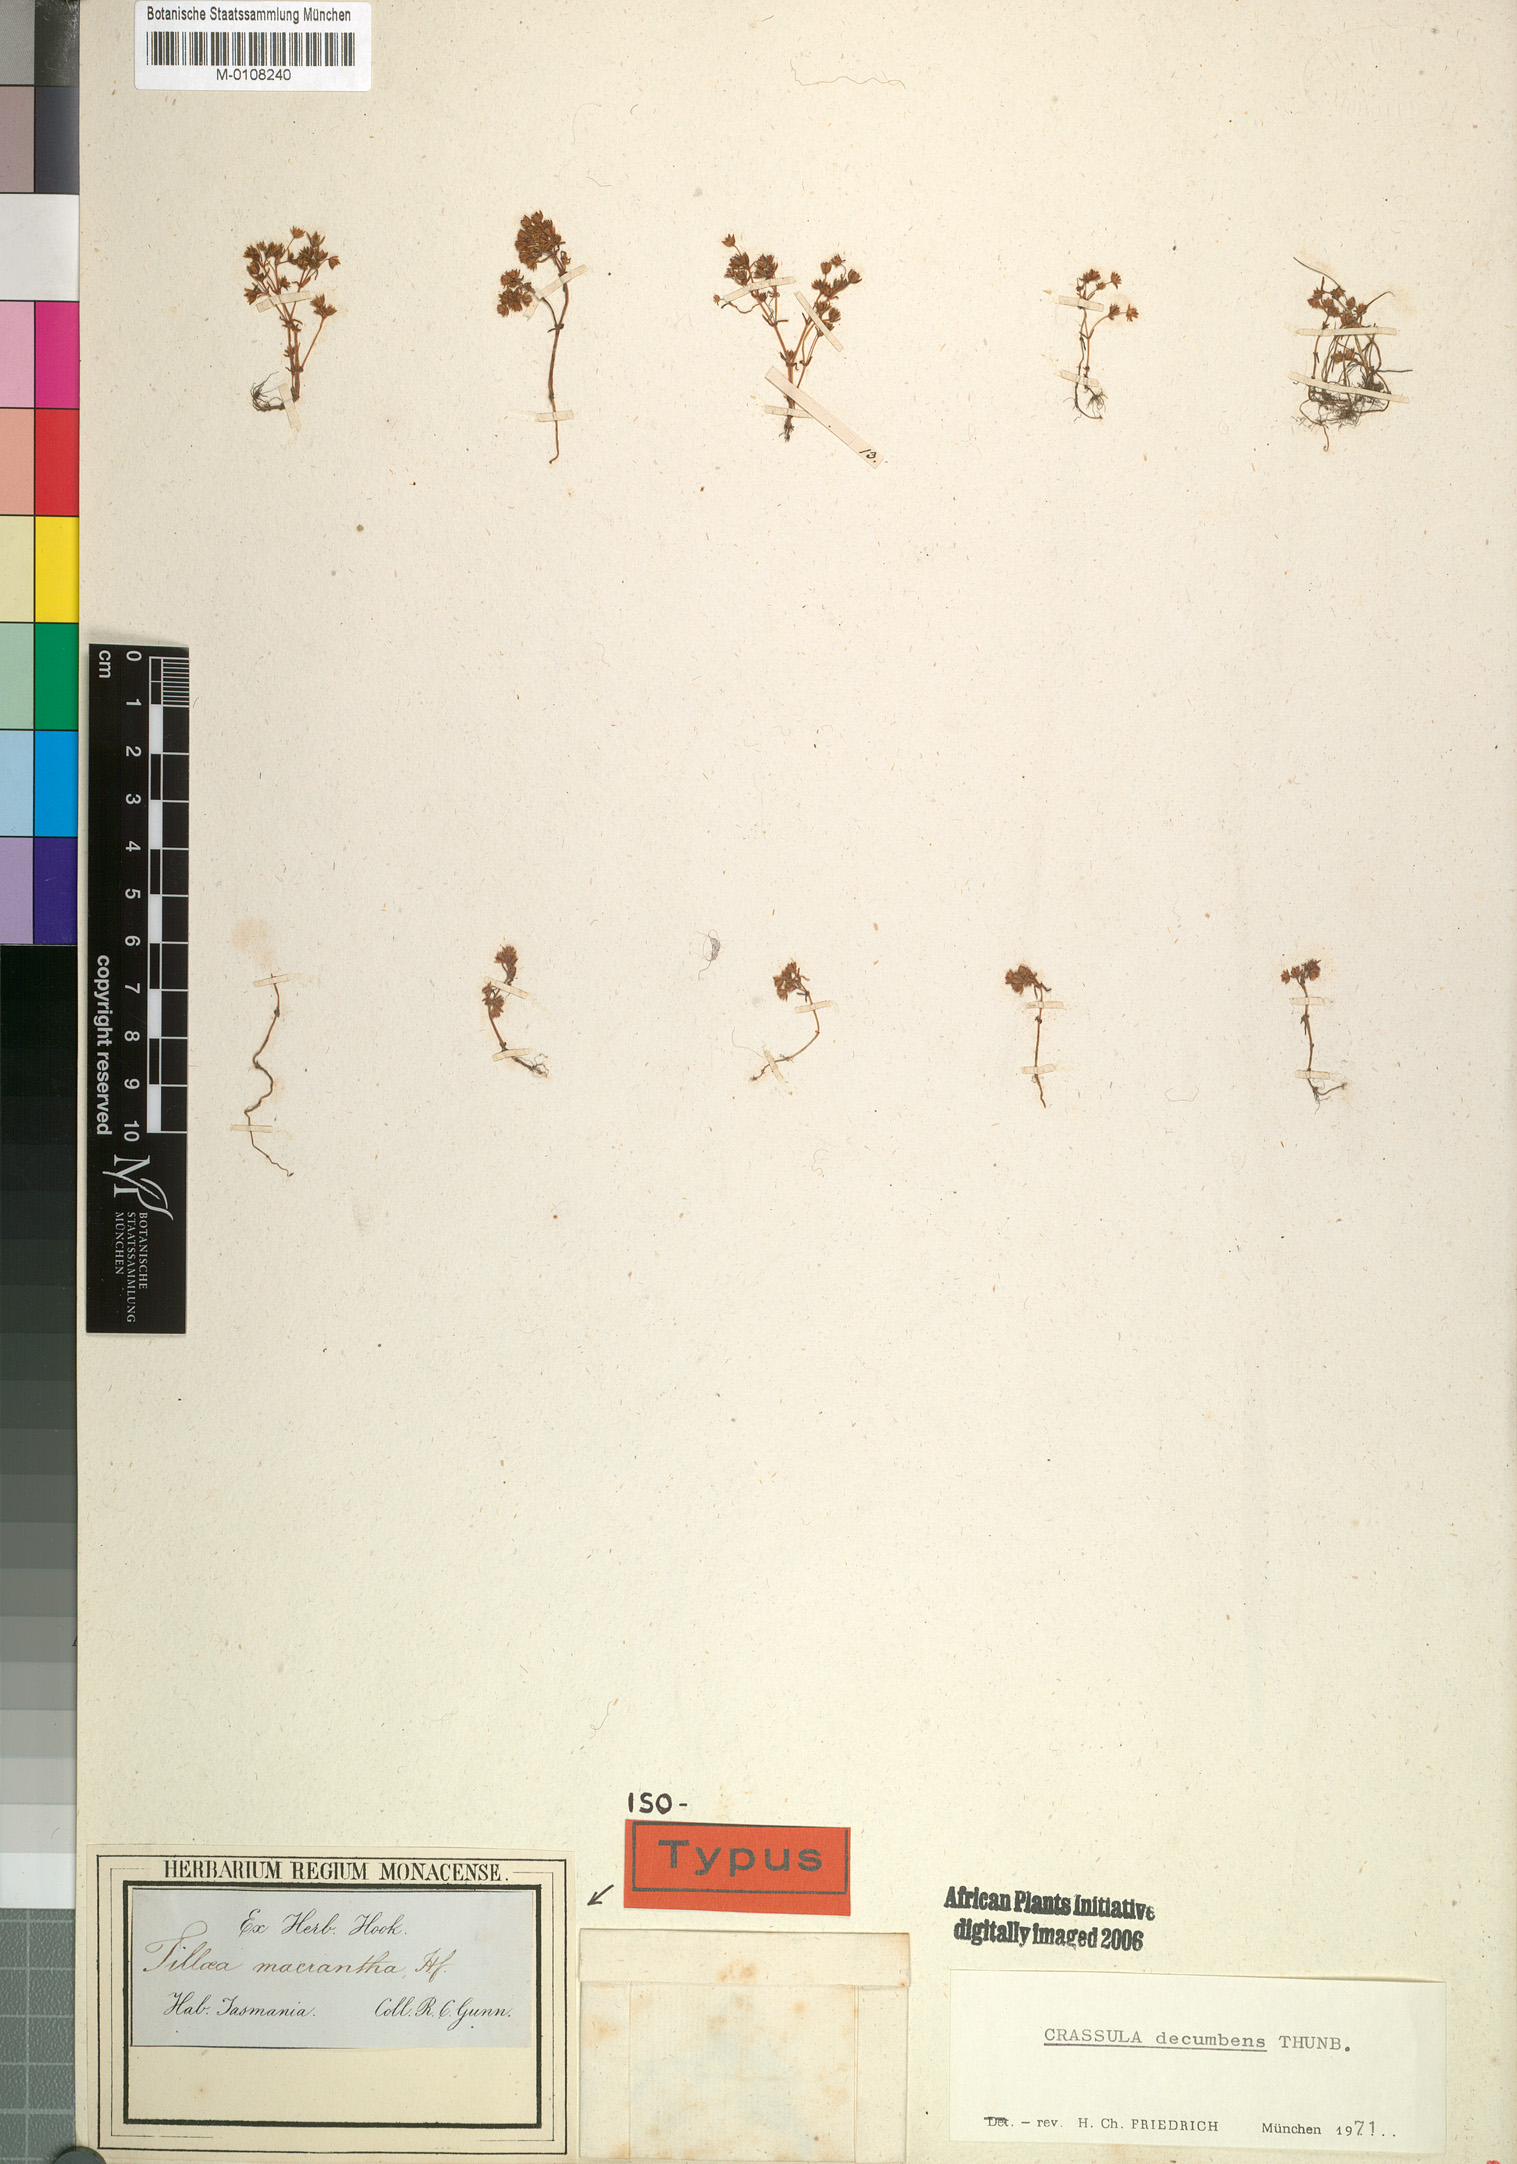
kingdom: Plantae
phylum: Tracheophyta
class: Magnoliopsida
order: Saxifragales
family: Crassulaceae
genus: Crassula
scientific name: Crassula decumbens
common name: Scilly pigmyweed
